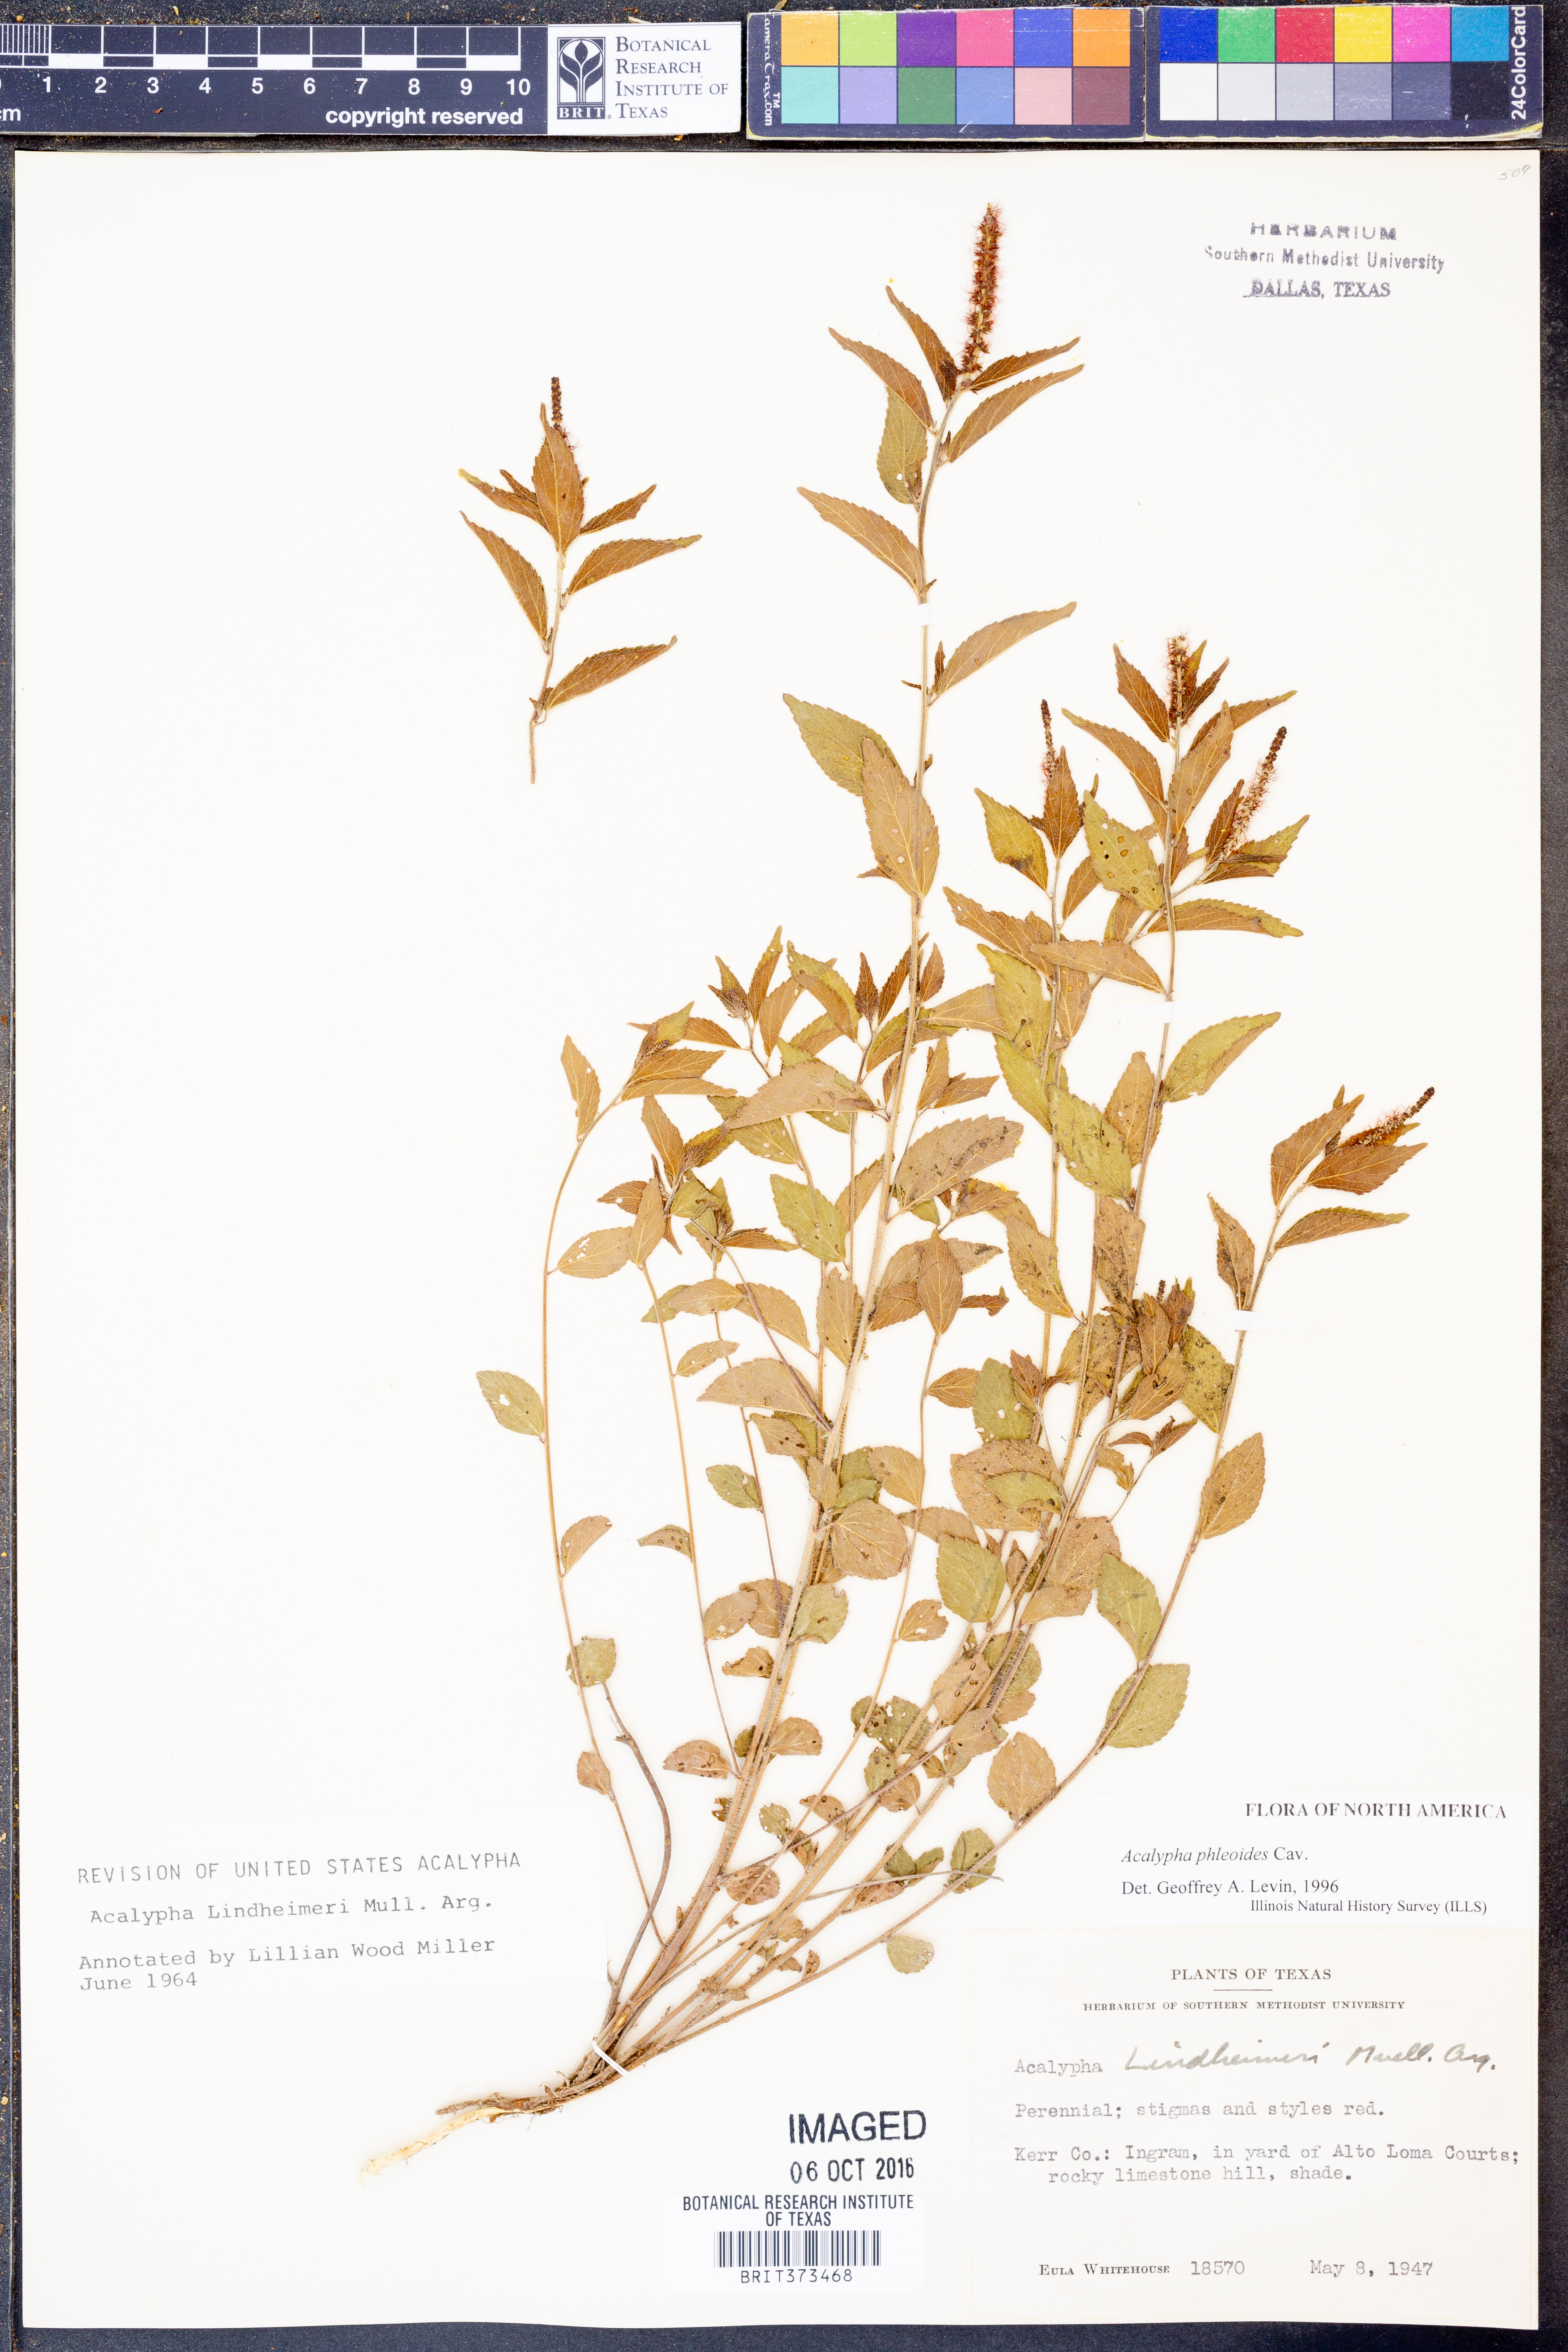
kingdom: Plantae
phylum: Tracheophyta
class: Magnoliopsida
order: Malpighiales
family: Euphorbiaceae
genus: Acalypha
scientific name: Acalypha phleoides
